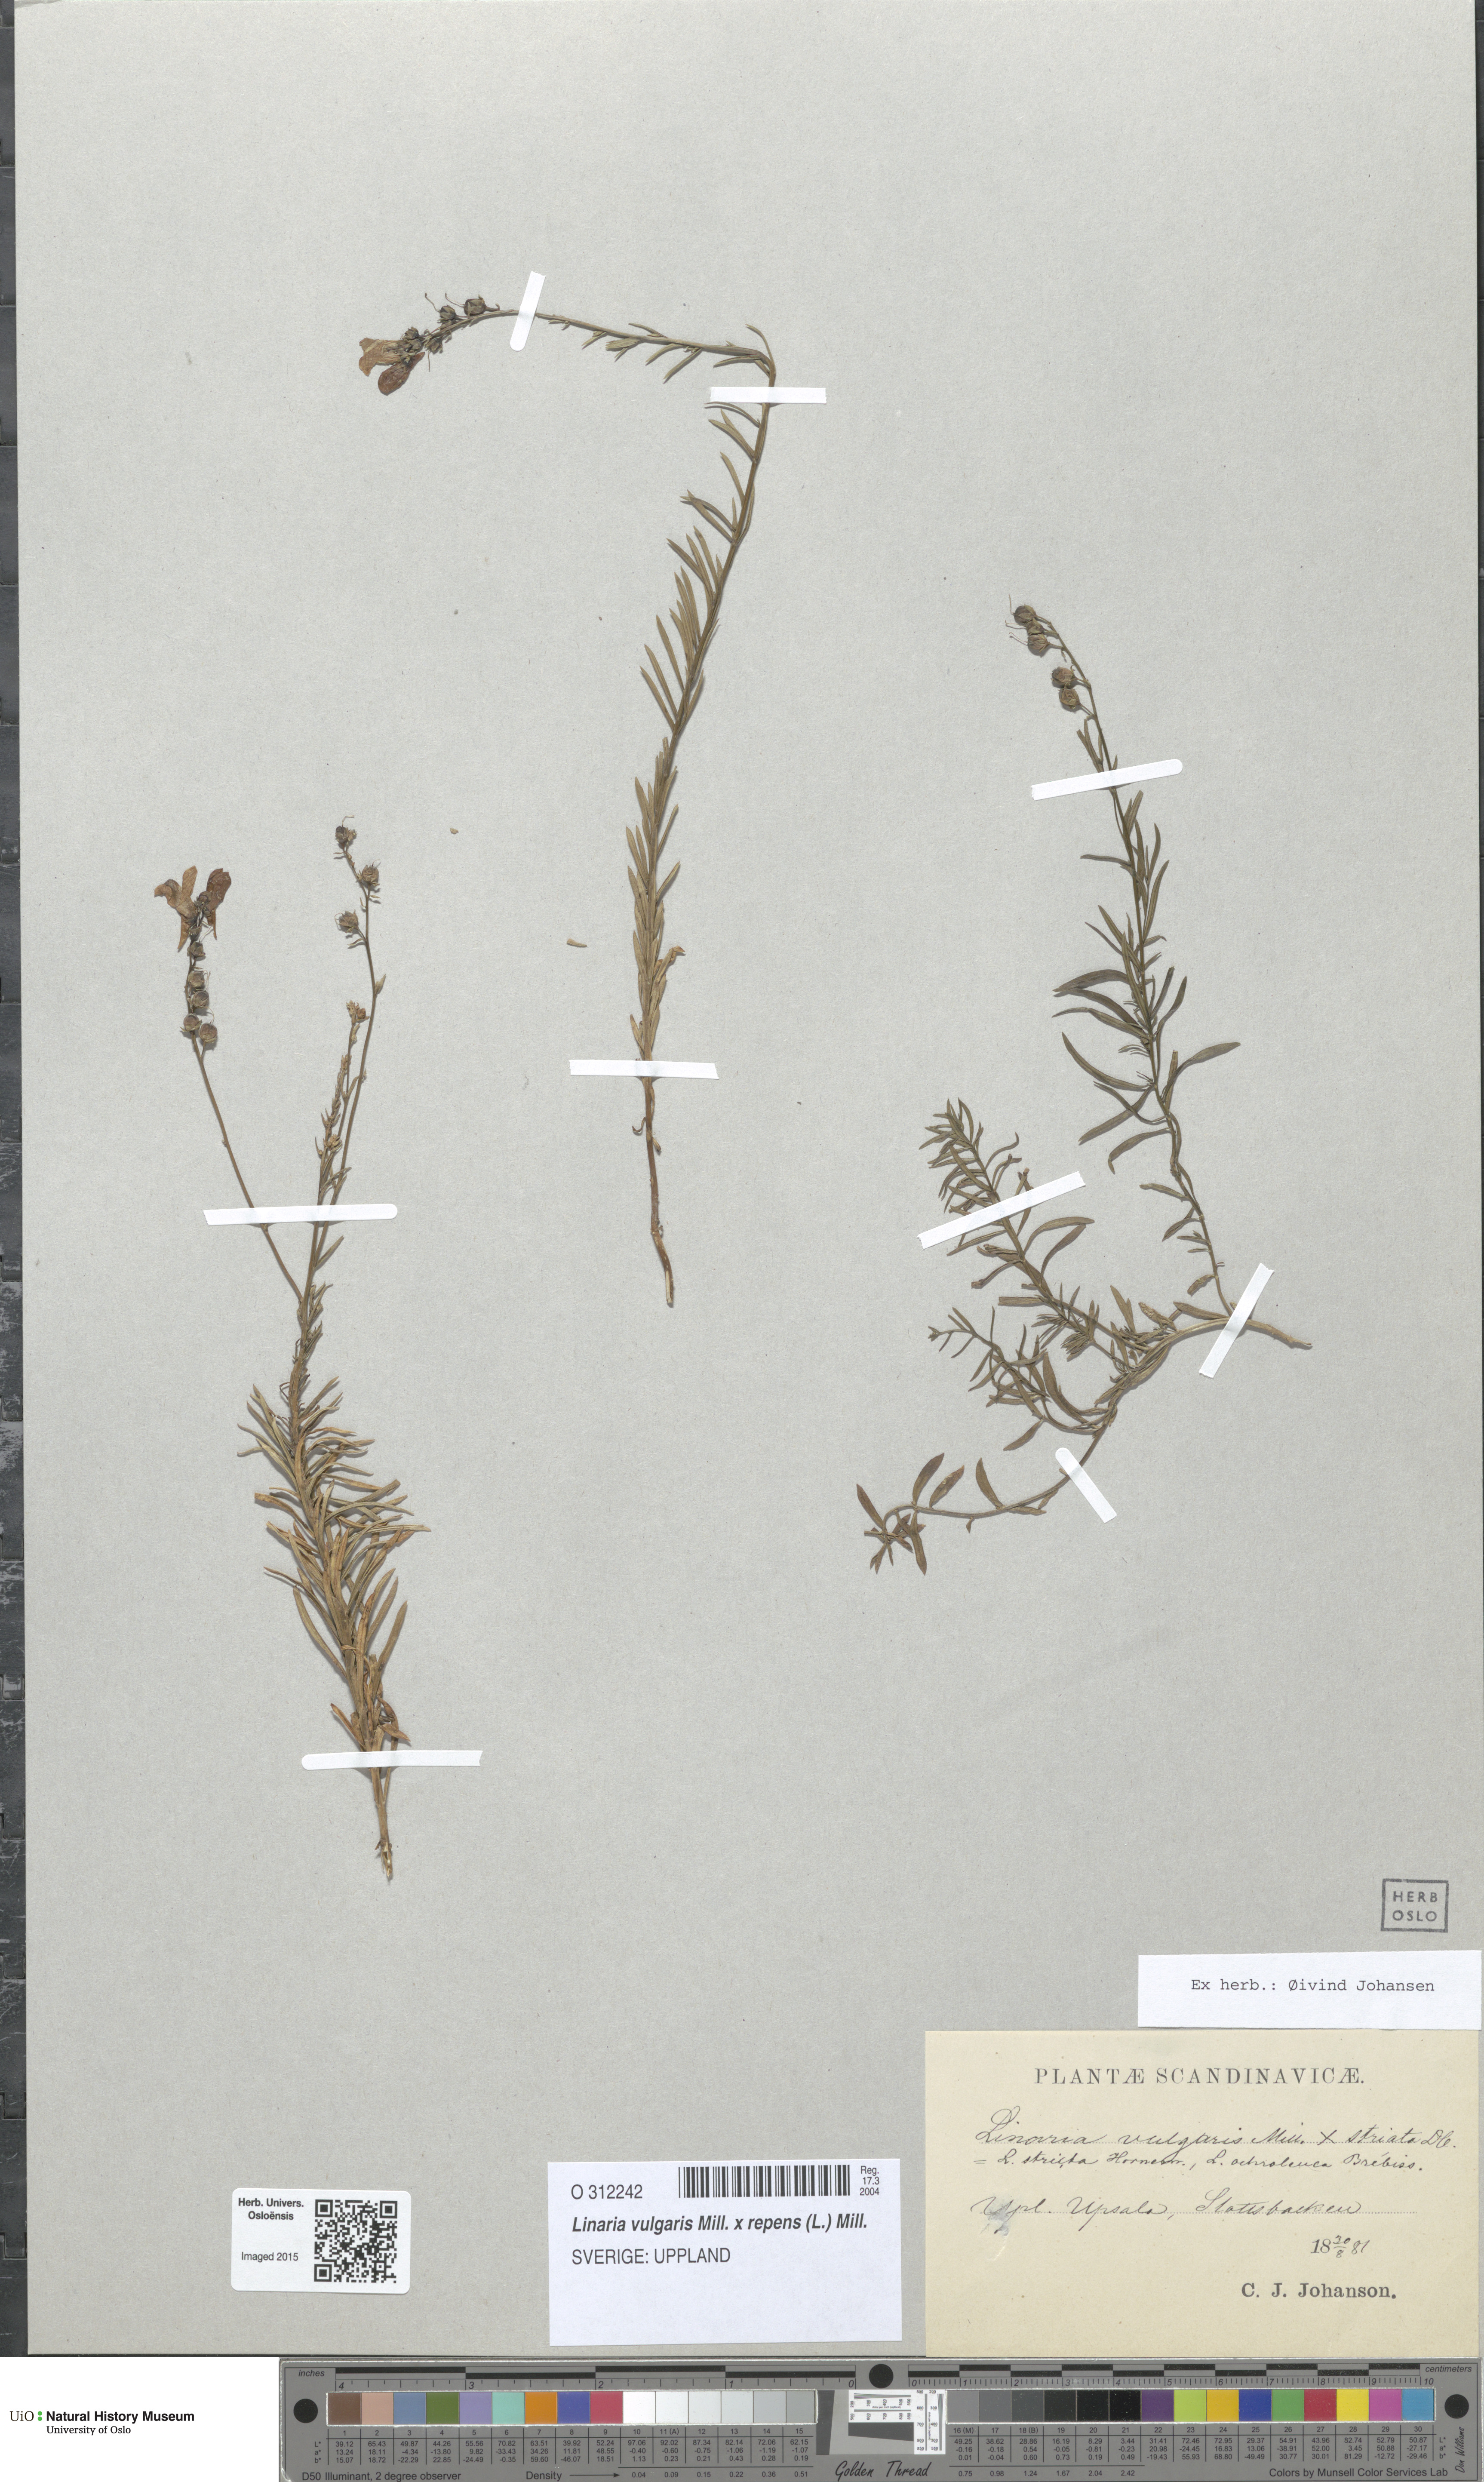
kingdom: Plantae
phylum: Tracheophyta
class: Magnoliopsida
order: Lamiales
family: Plantaginaceae
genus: Linaria
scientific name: Linaria
